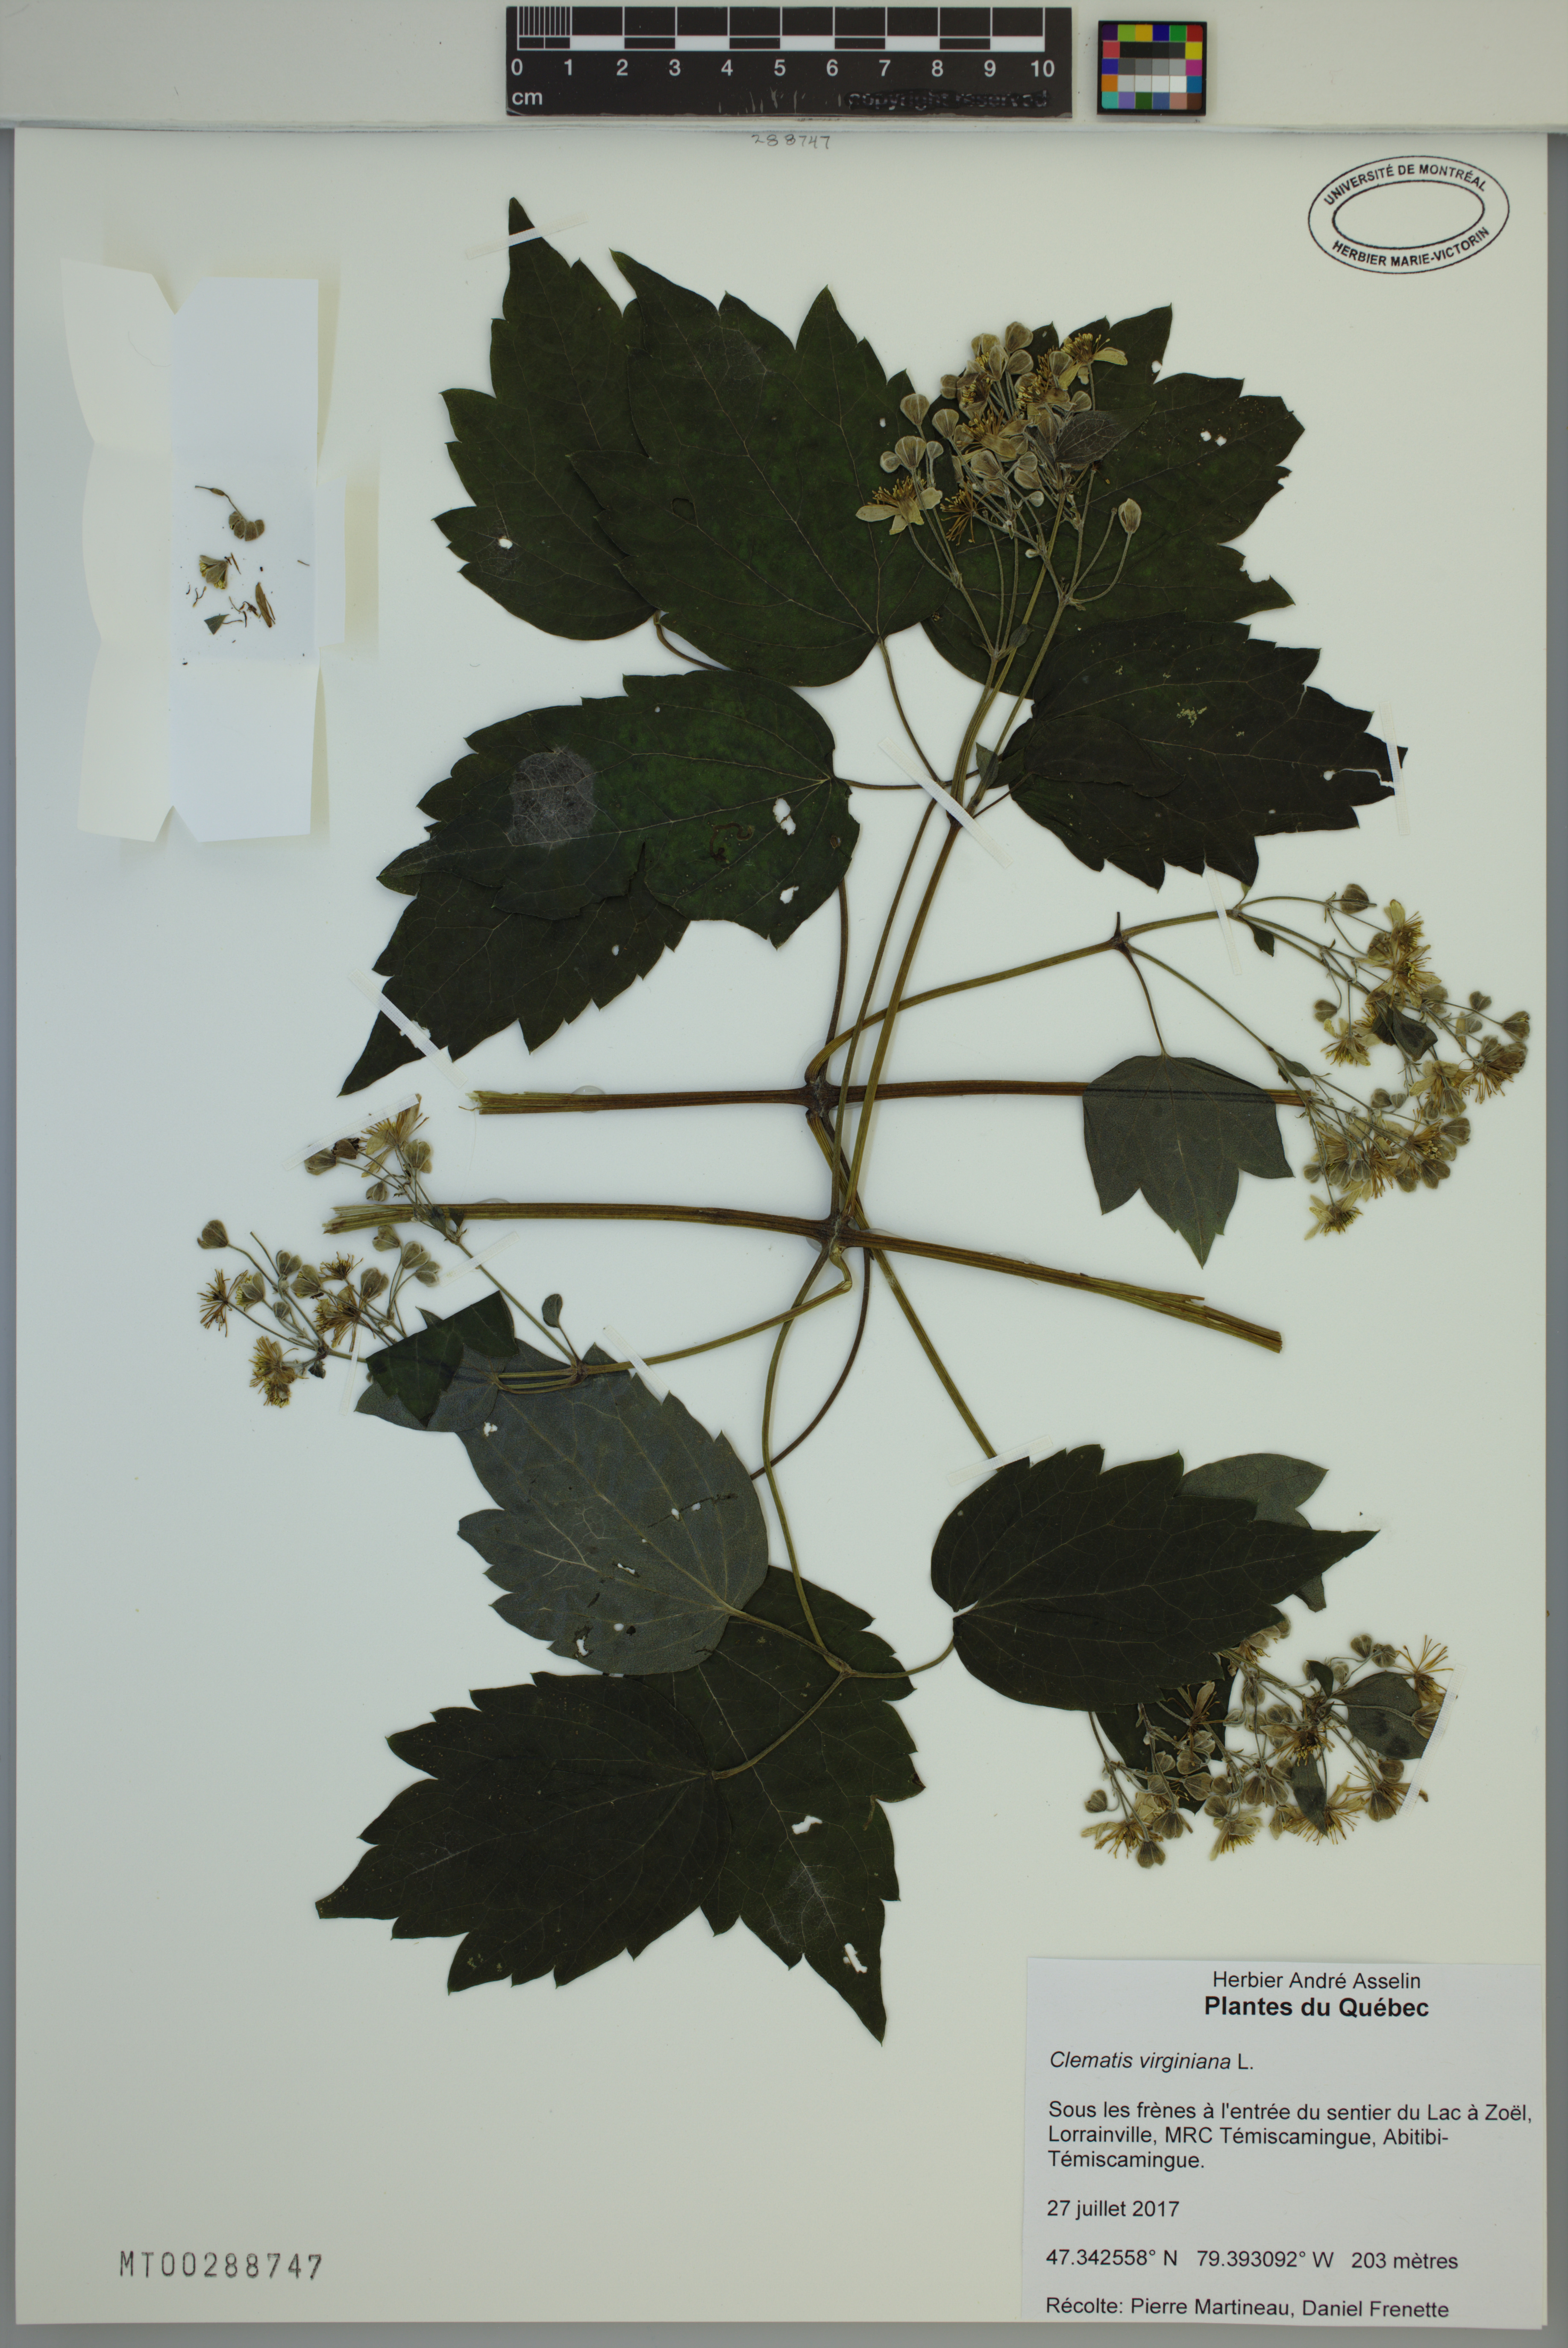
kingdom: Plantae
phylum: Tracheophyta
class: Magnoliopsida
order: Ranunculales
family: Ranunculaceae
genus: Clematis
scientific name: Clematis virginiana
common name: Virgin's-bower
